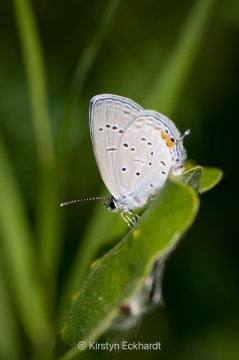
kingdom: Animalia
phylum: Arthropoda
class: Insecta
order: Lepidoptera
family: Lycaenidae
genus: Elkalyce
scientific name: Elkalyce comyntas
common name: Eastern Tailed-Blue
